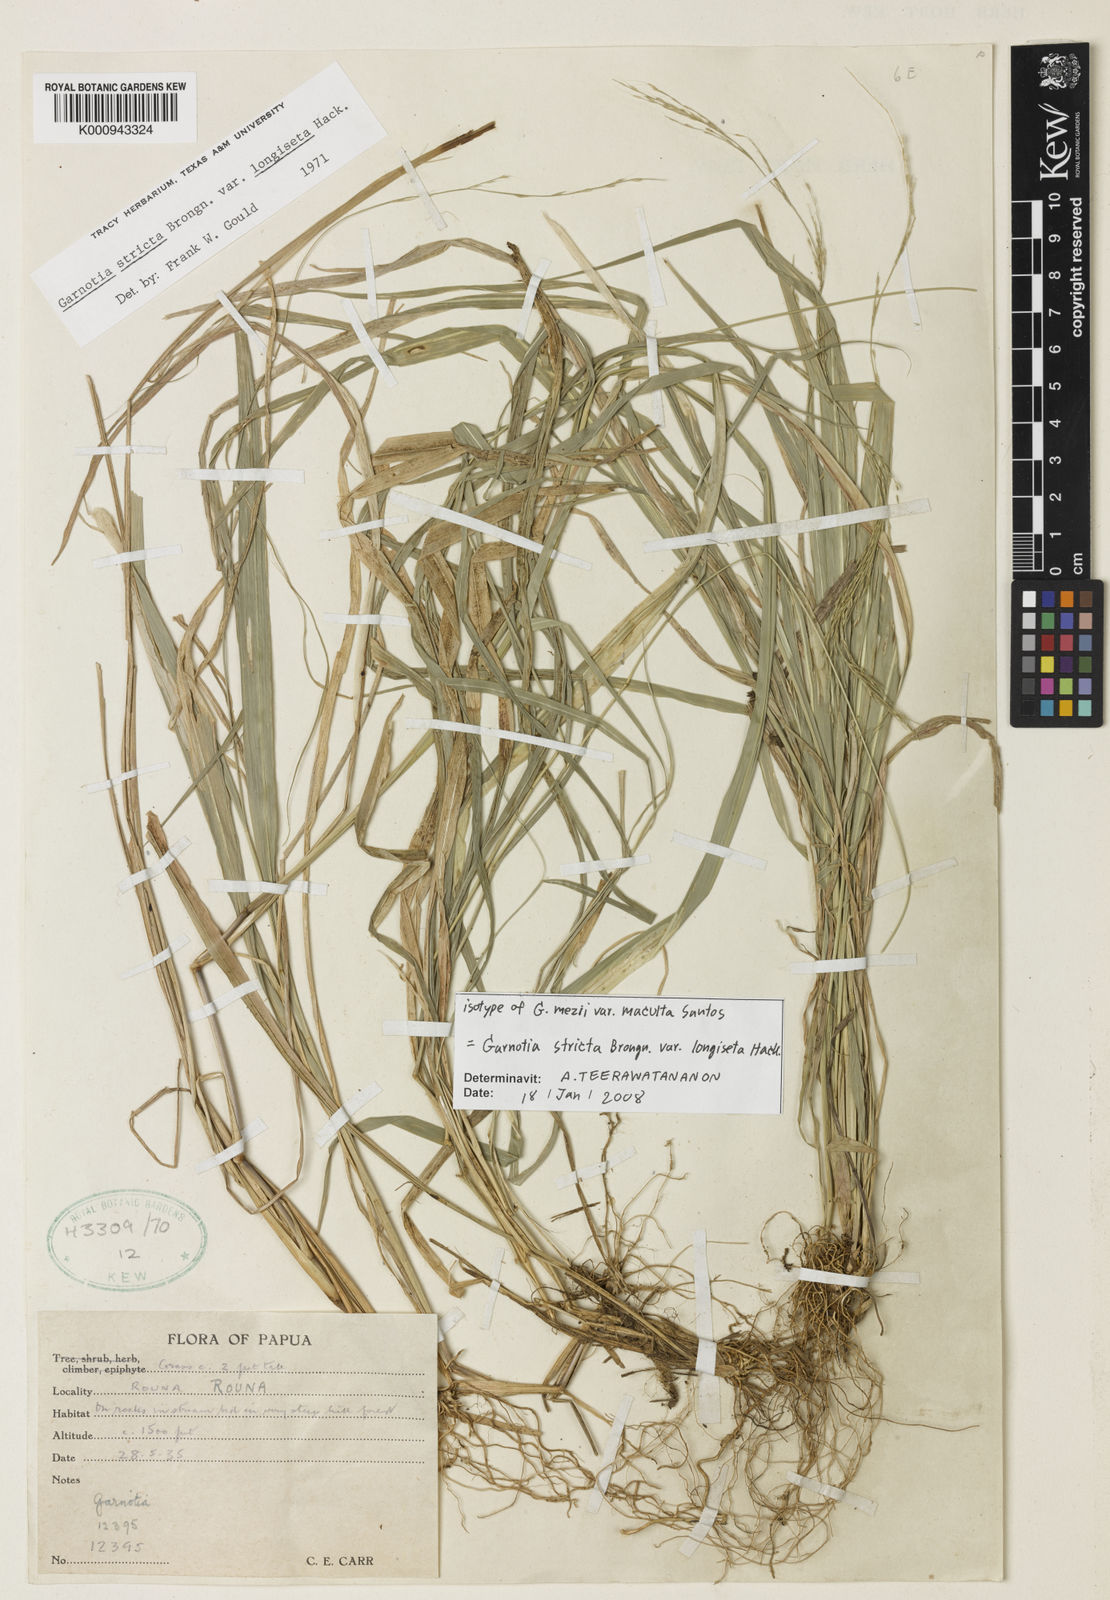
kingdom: Plantae
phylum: Tracheophyta
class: Liliopsida
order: Poales
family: Poaceae
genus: Garnotia
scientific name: Garnotia stricta
